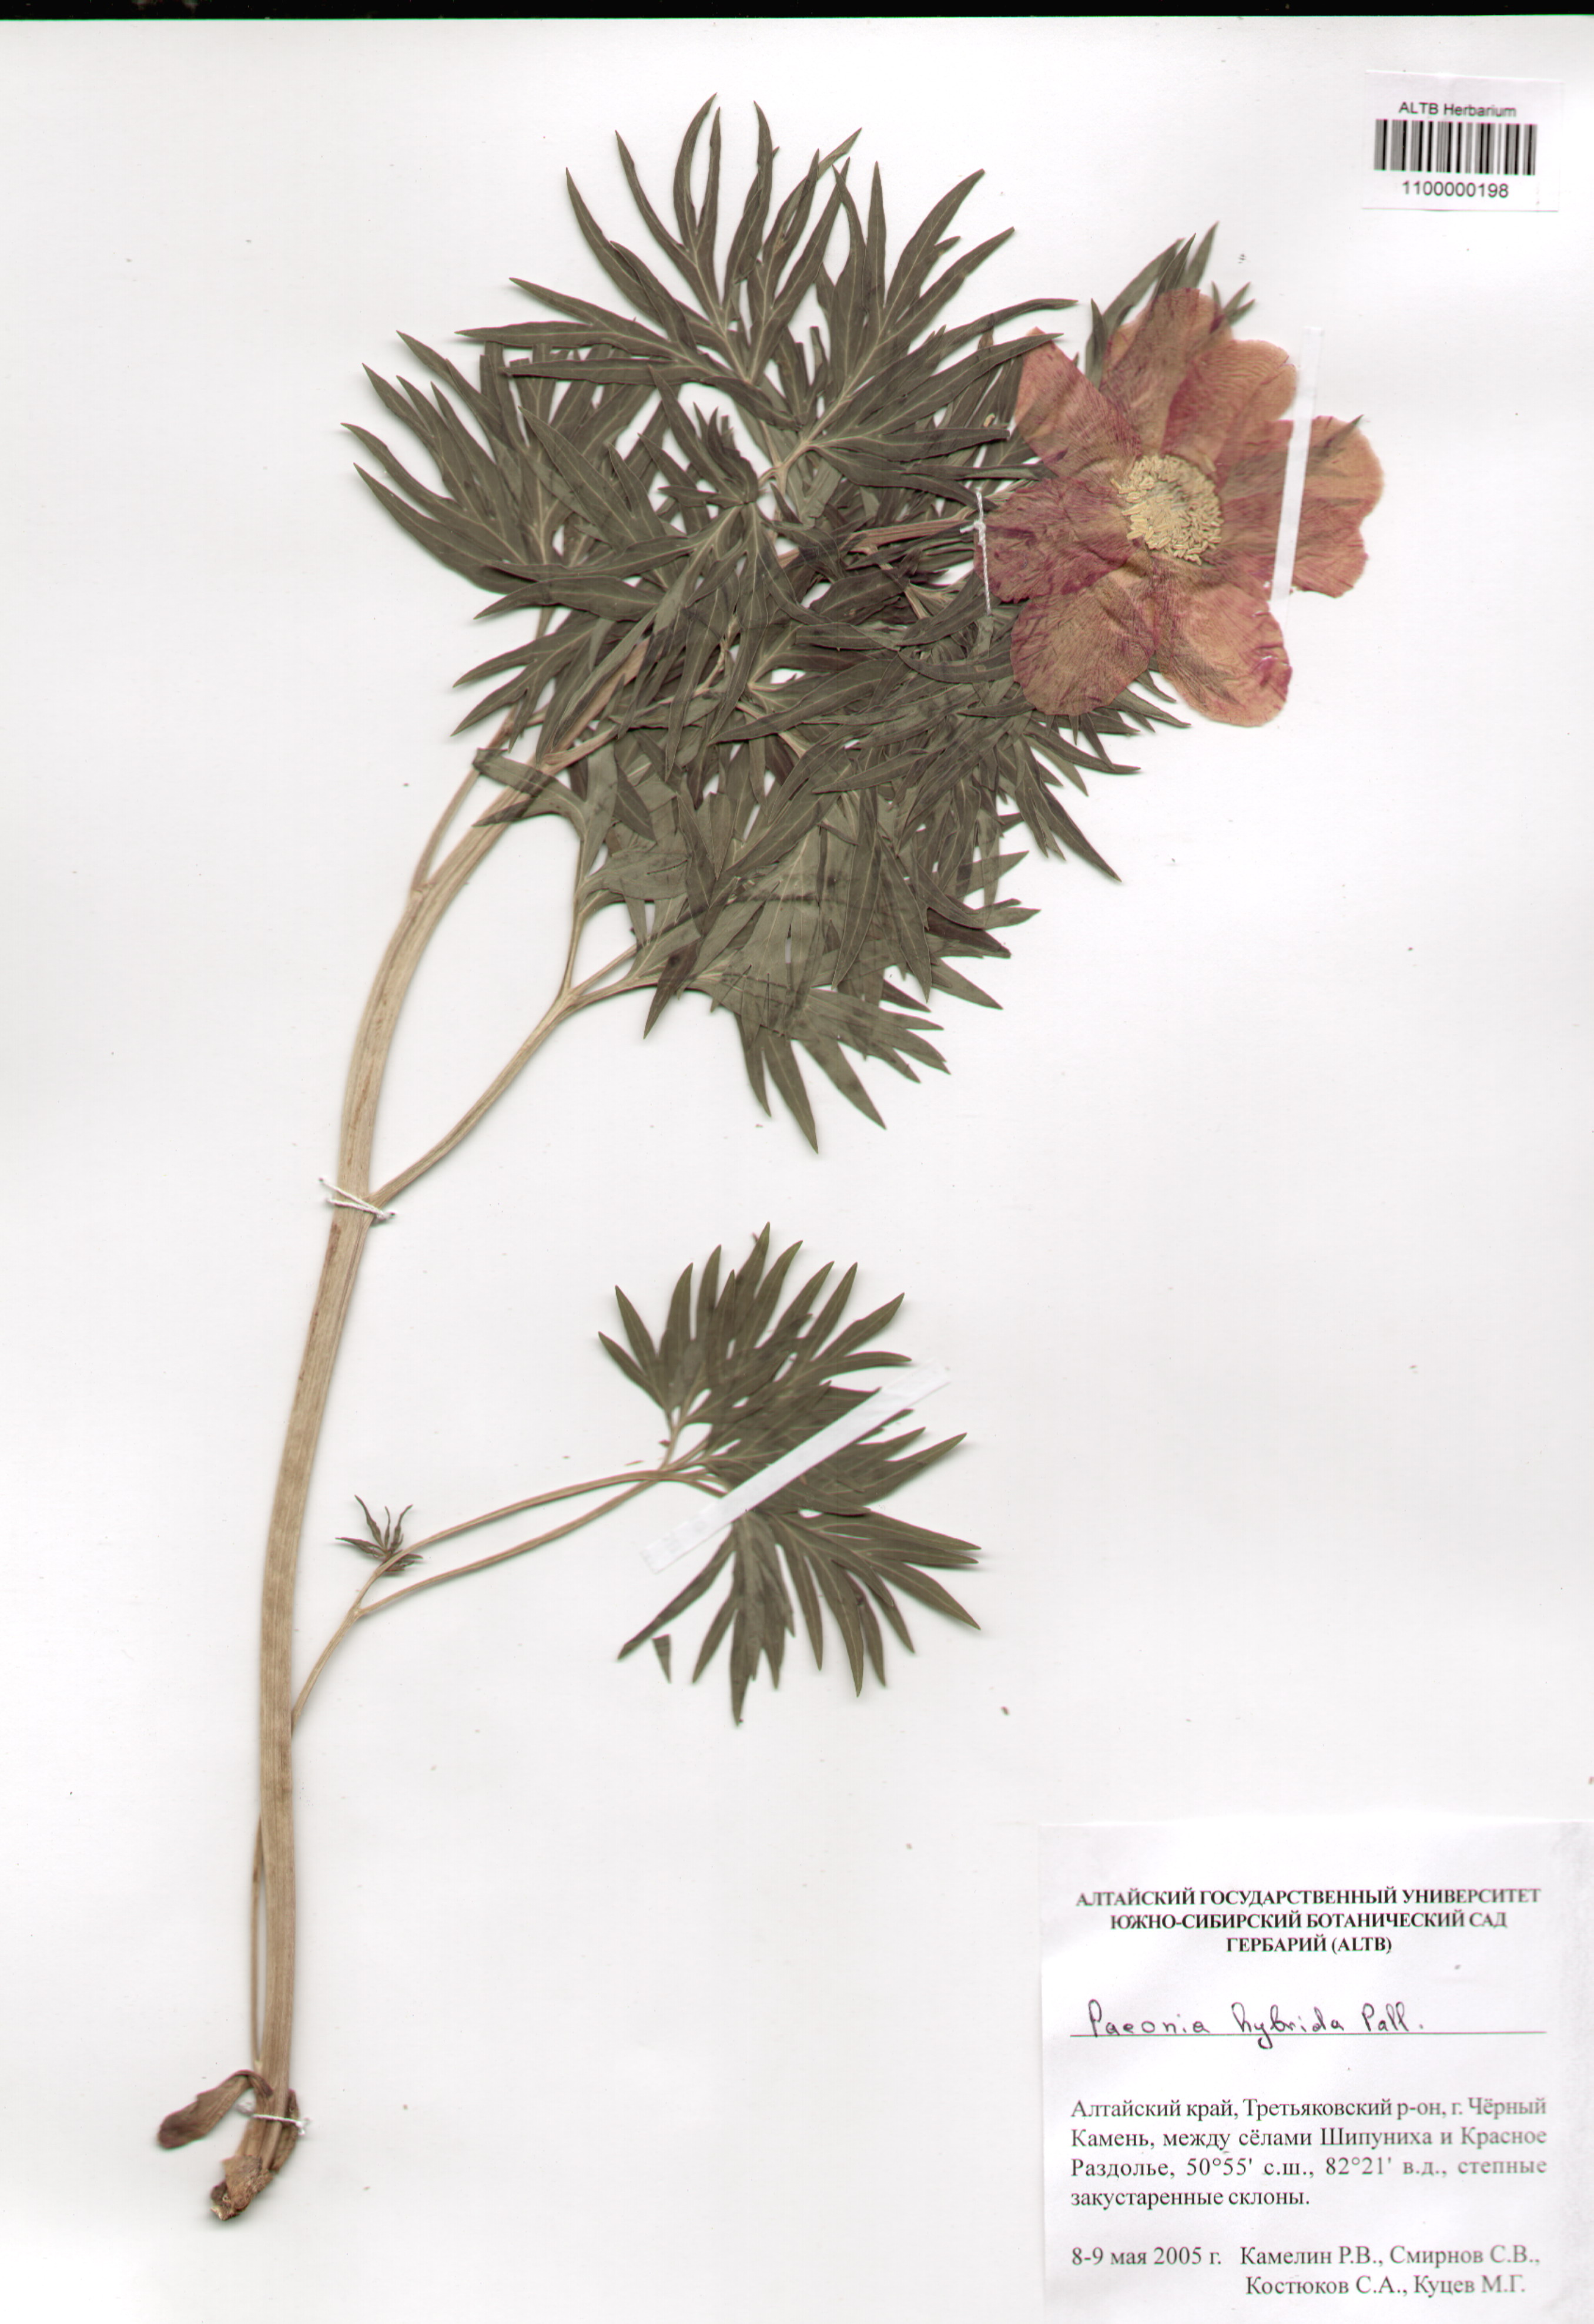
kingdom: Plantae
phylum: Tracheophyta
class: Magnoliopsida
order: Saxifragales
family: Paeoniaceae
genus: Paeonia
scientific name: Paeonia
